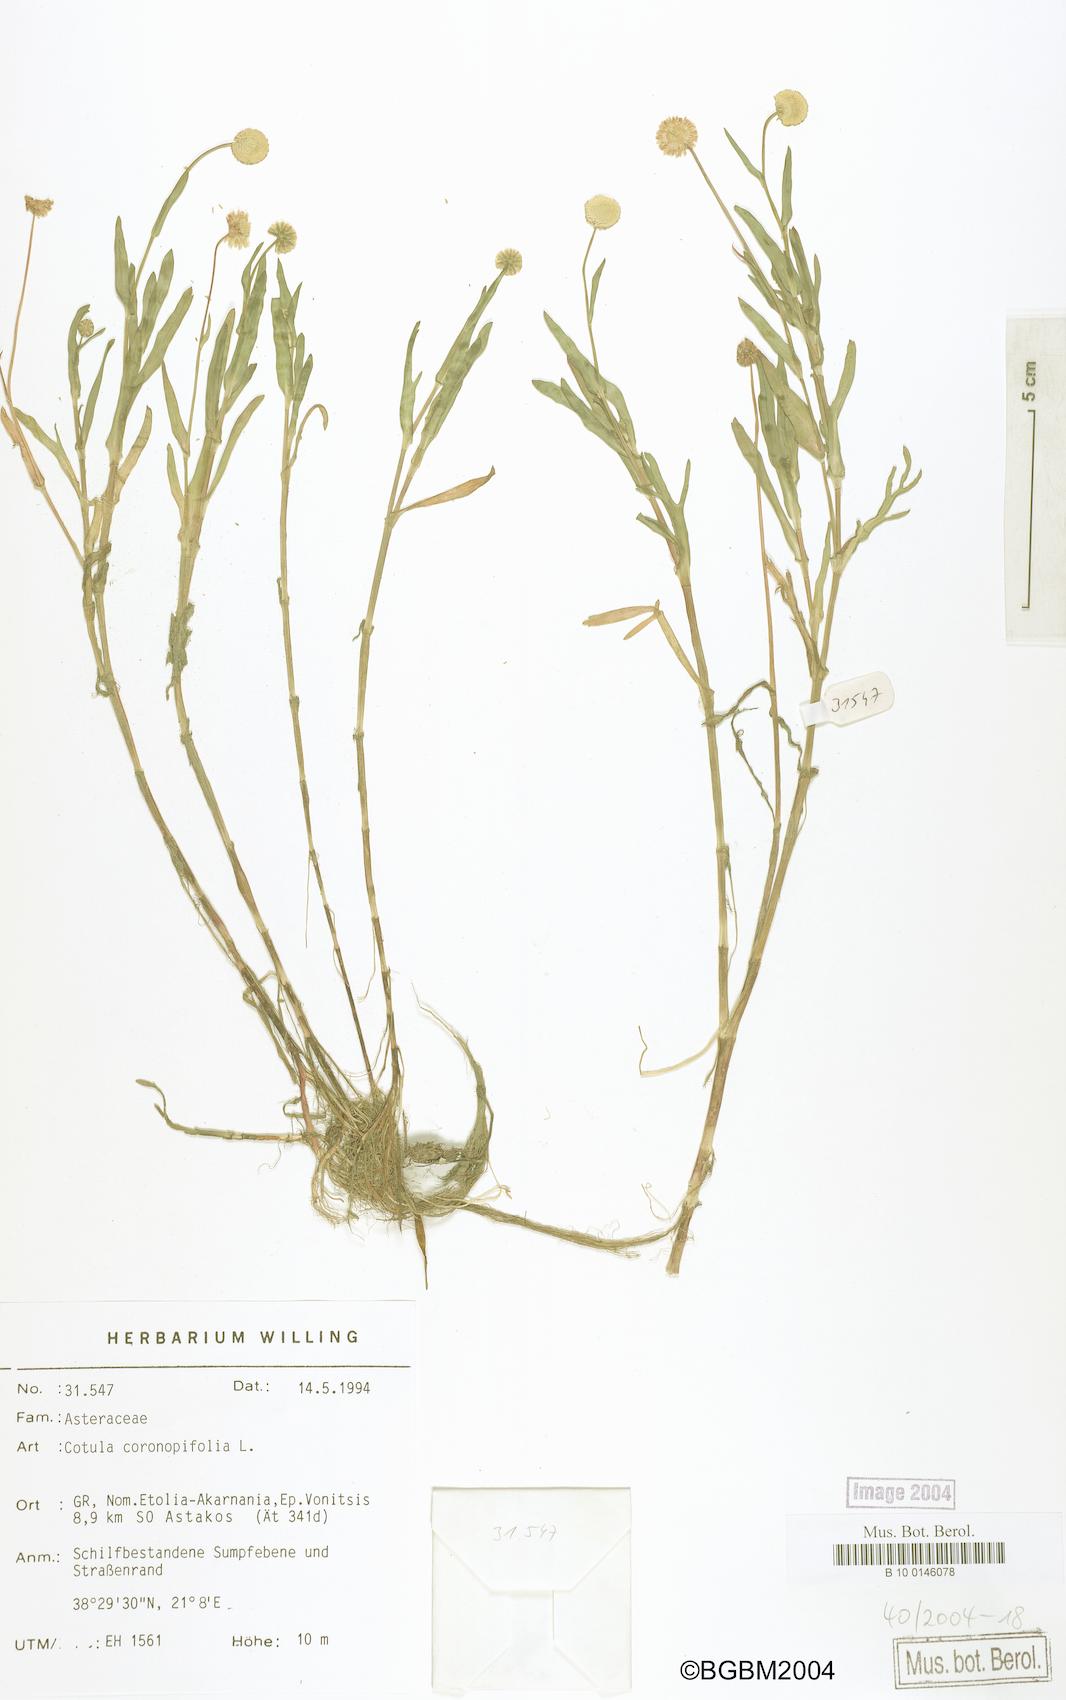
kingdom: Plantae
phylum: Tracheophyta
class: Magnoliopsida
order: Asterales
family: Asteraceae
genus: Cotula
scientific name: Cotula coronopifolia
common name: Buttonweed
